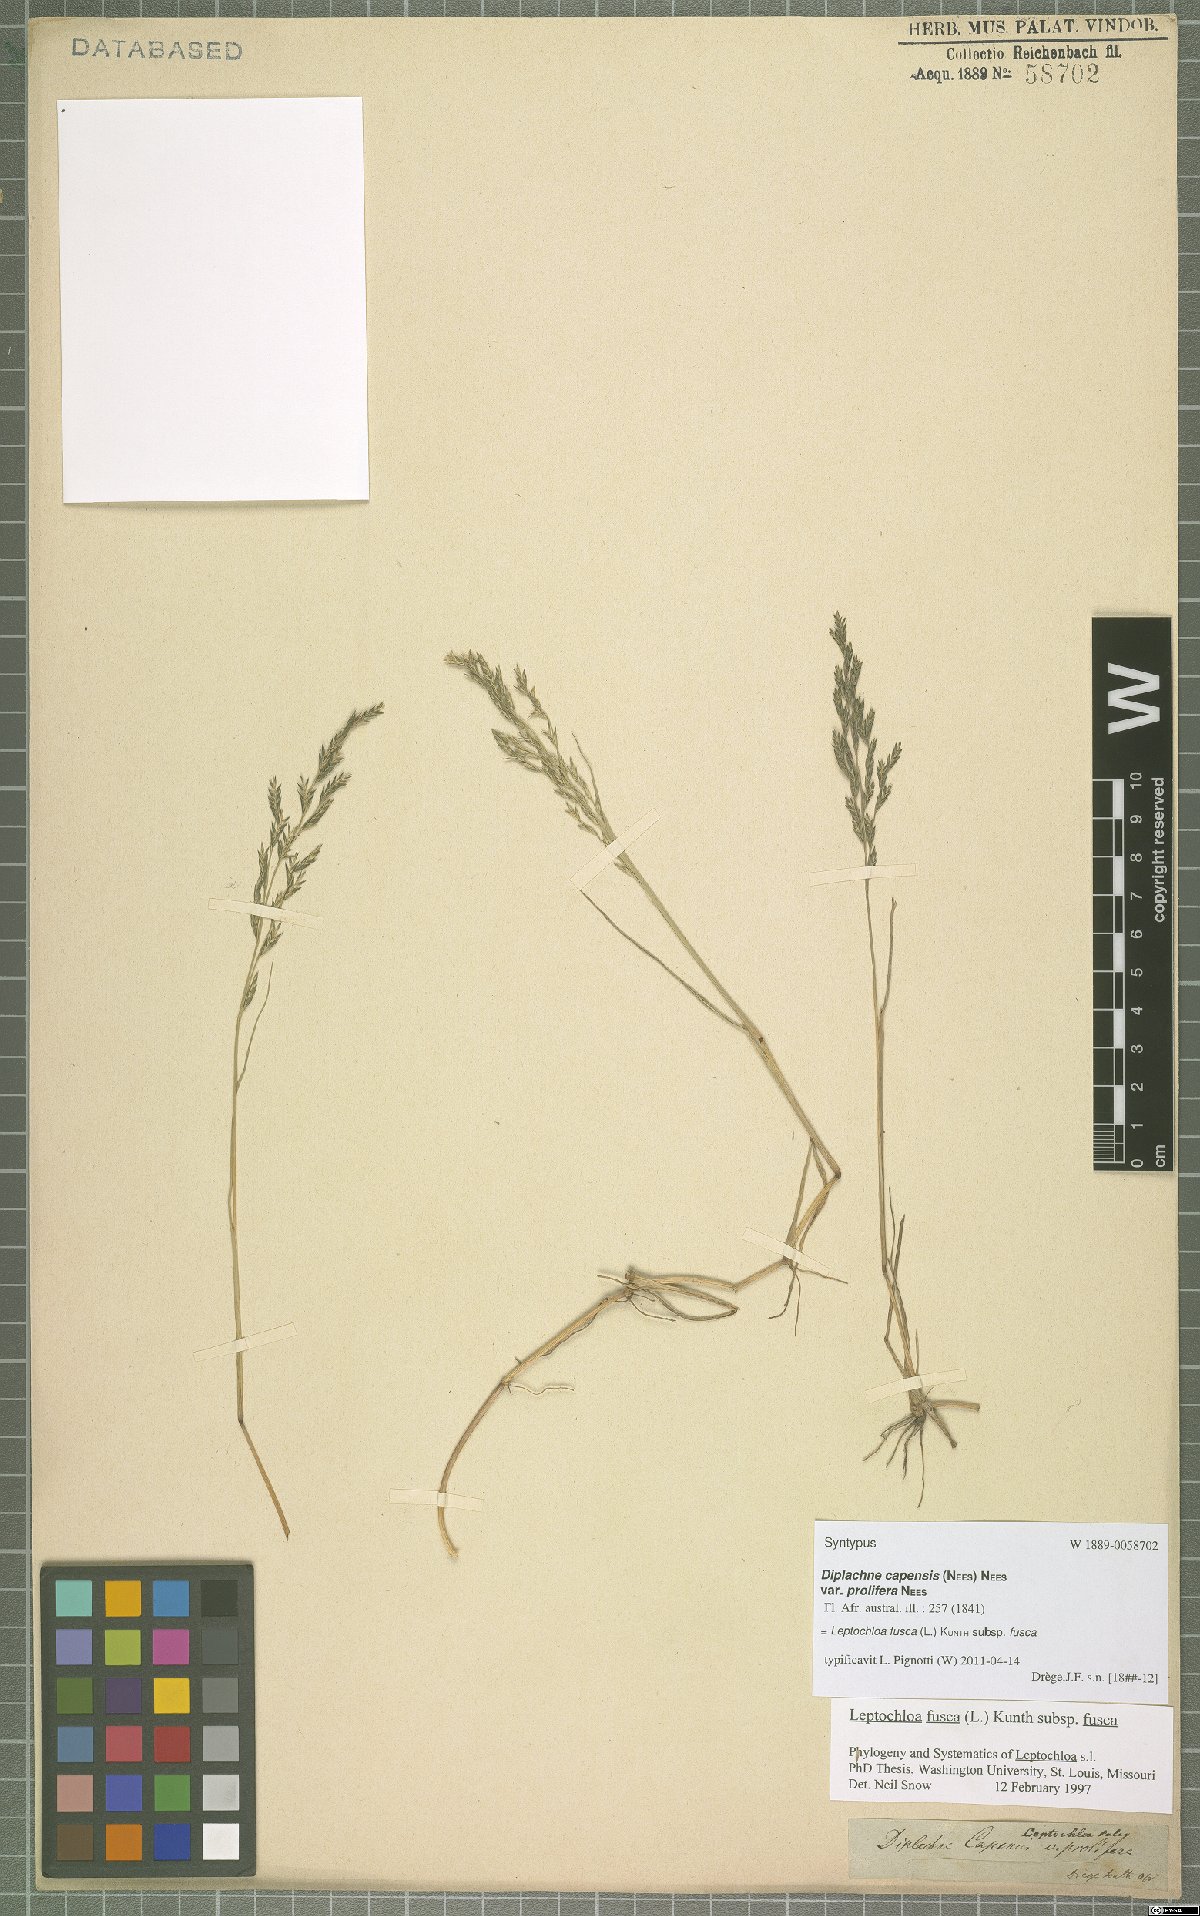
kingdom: Plantae
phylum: Tracheophyta
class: Liliopsida
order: Poales
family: Poaceae
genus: Diplachne
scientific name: Diplachne fusca
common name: Brown beetle grass
